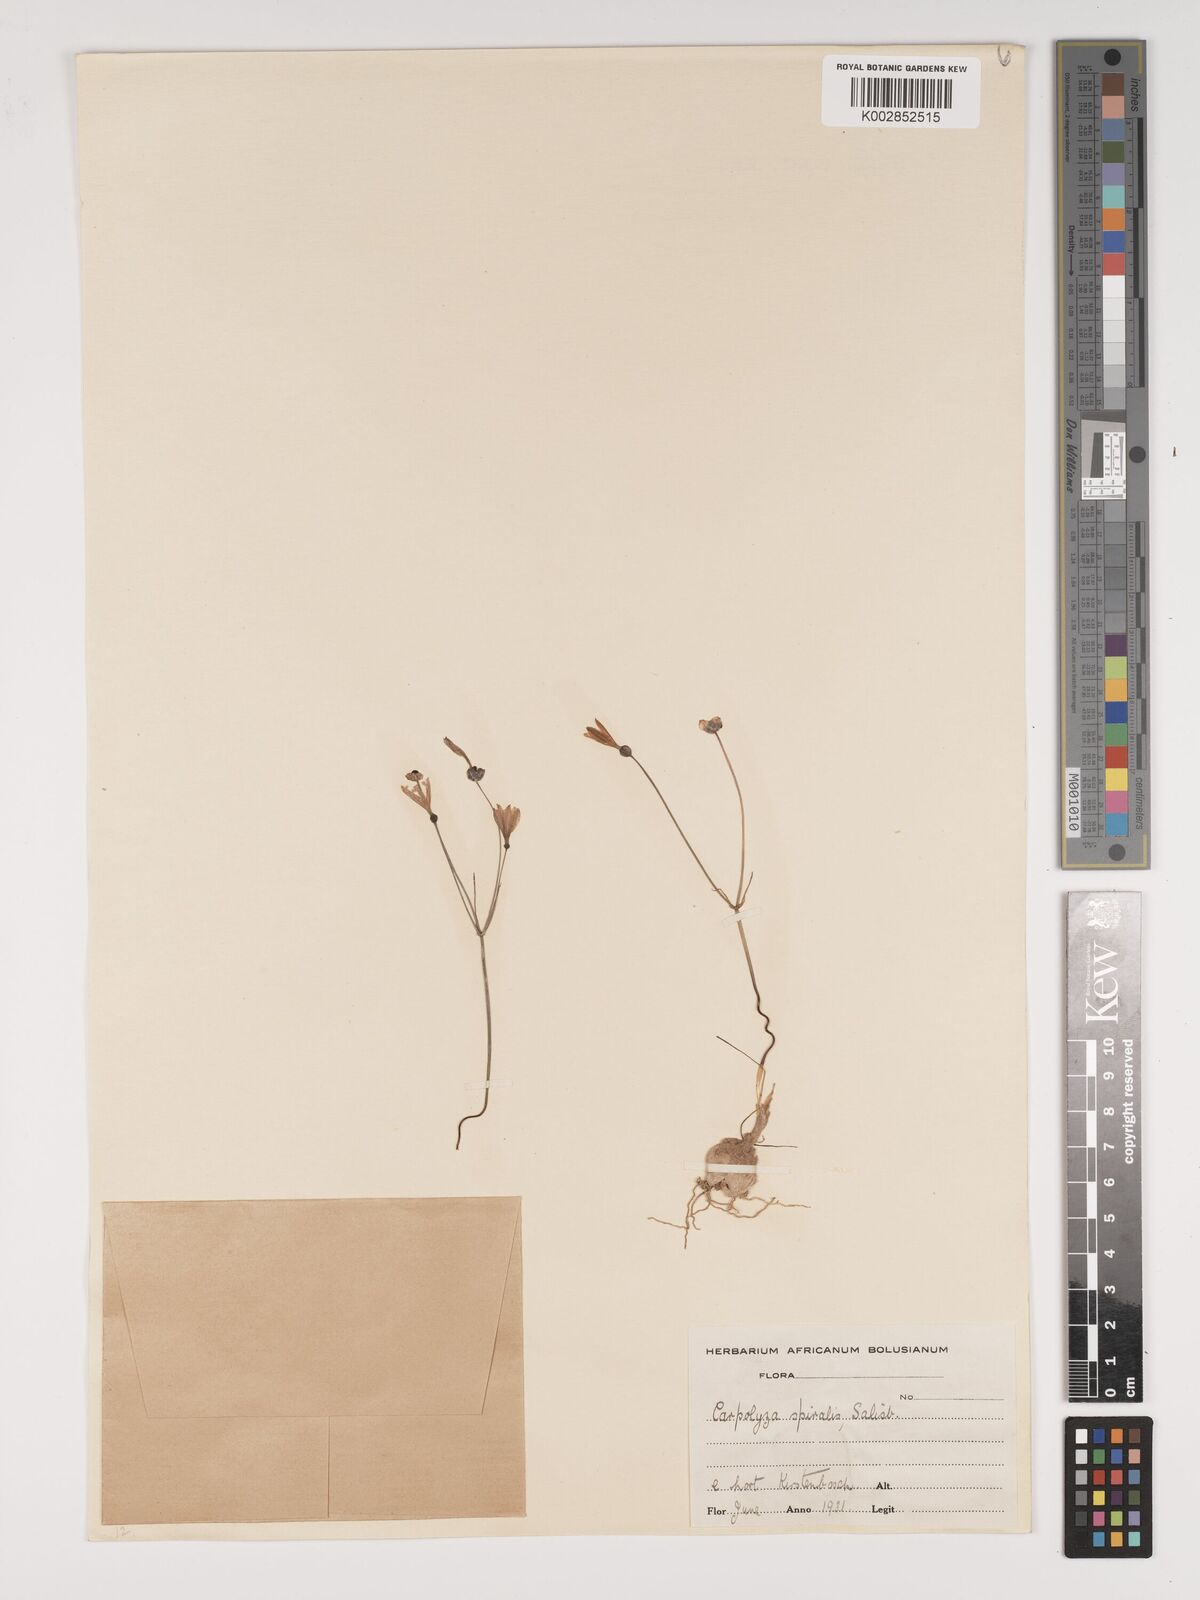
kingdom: Plantae
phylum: Tracheophyta
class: Liliopsida
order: Asparagales
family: Amaryllidaceae
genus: Strumaria
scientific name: Strumaria spiralis
